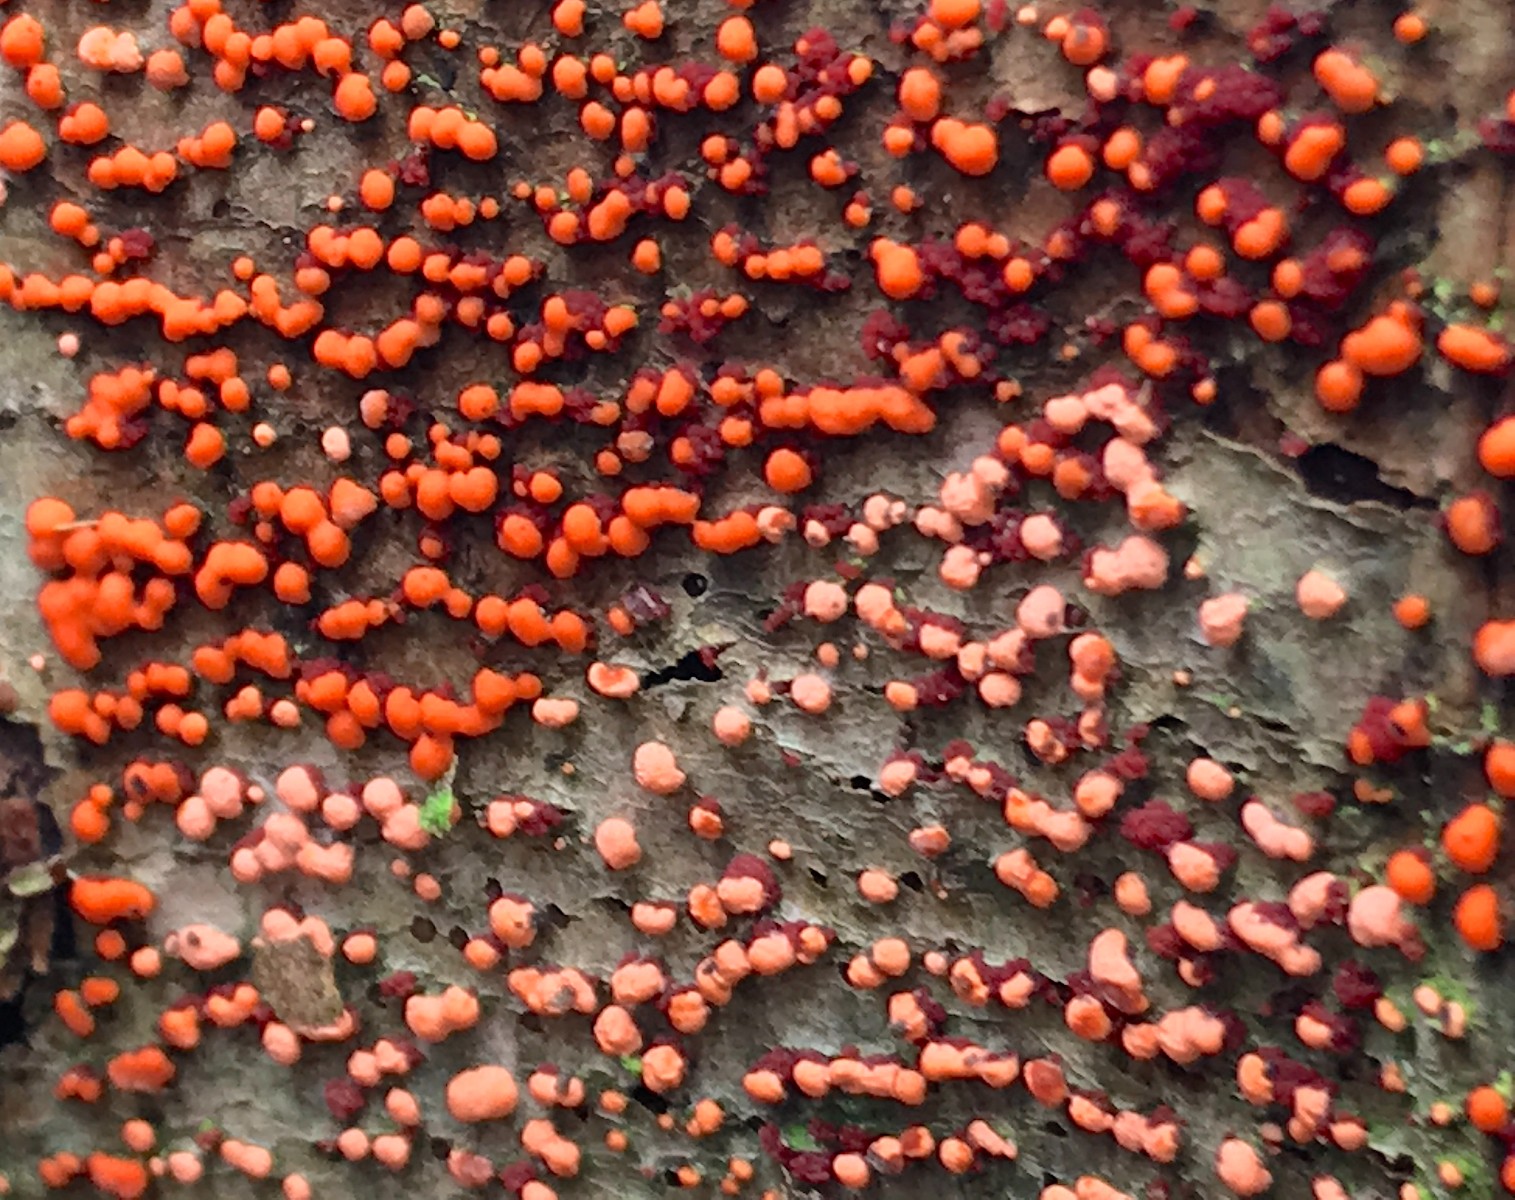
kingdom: Fungi
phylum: Ascomycota
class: Sordariomycetes
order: Hypocreales
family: Nectriaceae
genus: Nectria
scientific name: Nectria cinnabarina
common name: almindelig cinnobersvamp
